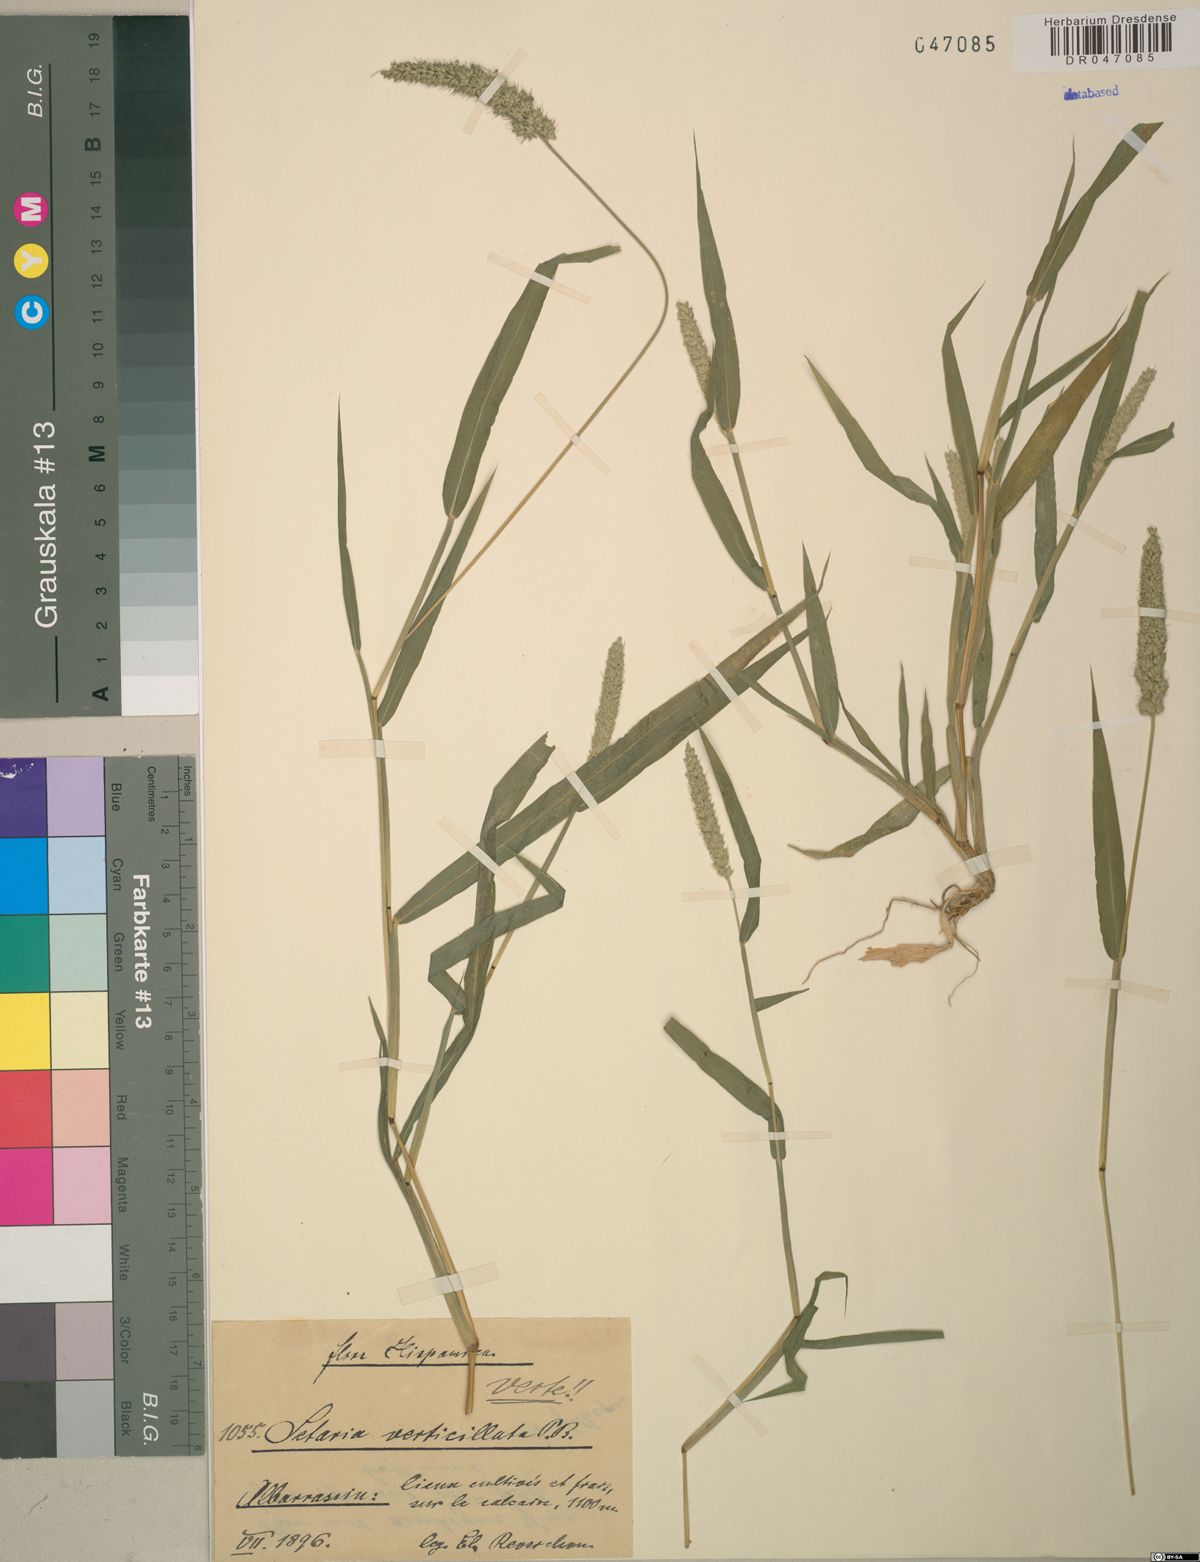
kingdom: Plantae
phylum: Tracheophyta
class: Liliopsida
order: Poales
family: Poaceae
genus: Setaria
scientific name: Setaria verticillata
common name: Hooked bristlegrass
